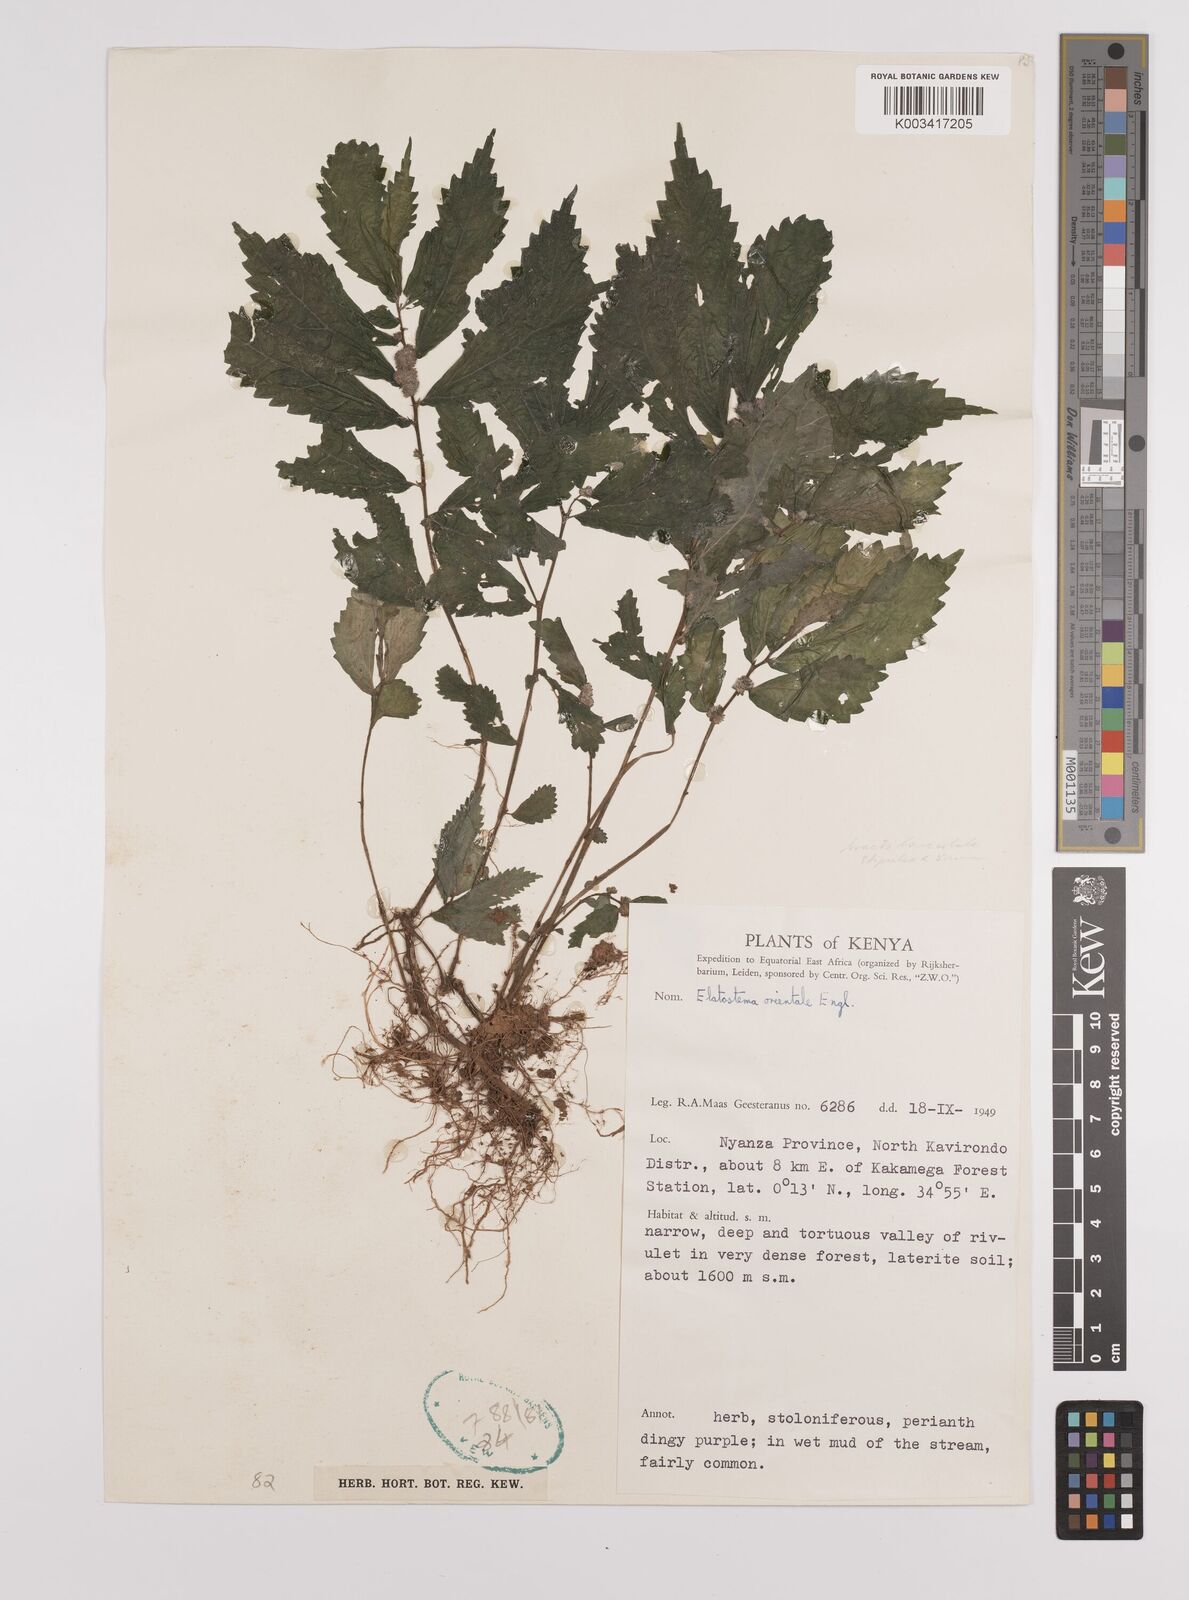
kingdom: Plantae
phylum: Tracheophyta
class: Magnoliopsida
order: Rosales
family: Urticaceae
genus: Elatostema
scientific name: Elatostema monticola
